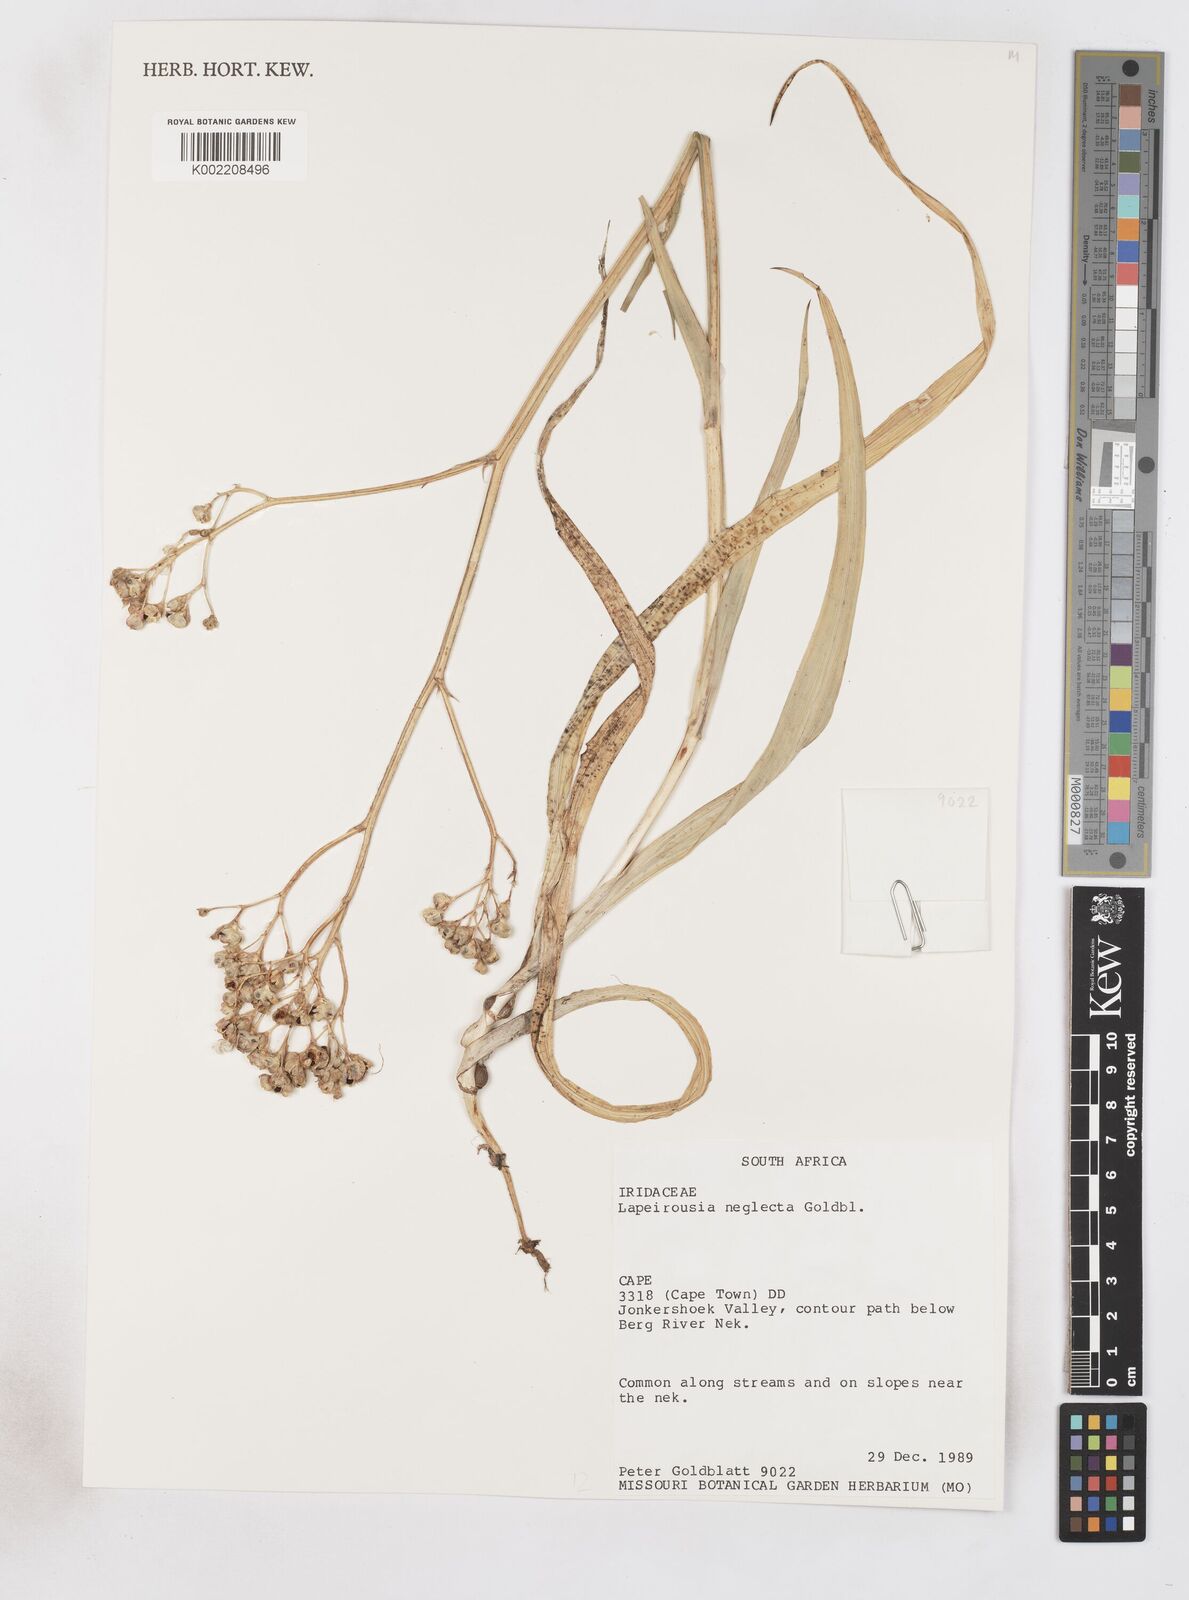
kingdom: Plantae
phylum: Tracheophyta
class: Liliopsida
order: Asparagales
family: Iridaceae
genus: Schizorhiza
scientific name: Schizorhiza neglecta
